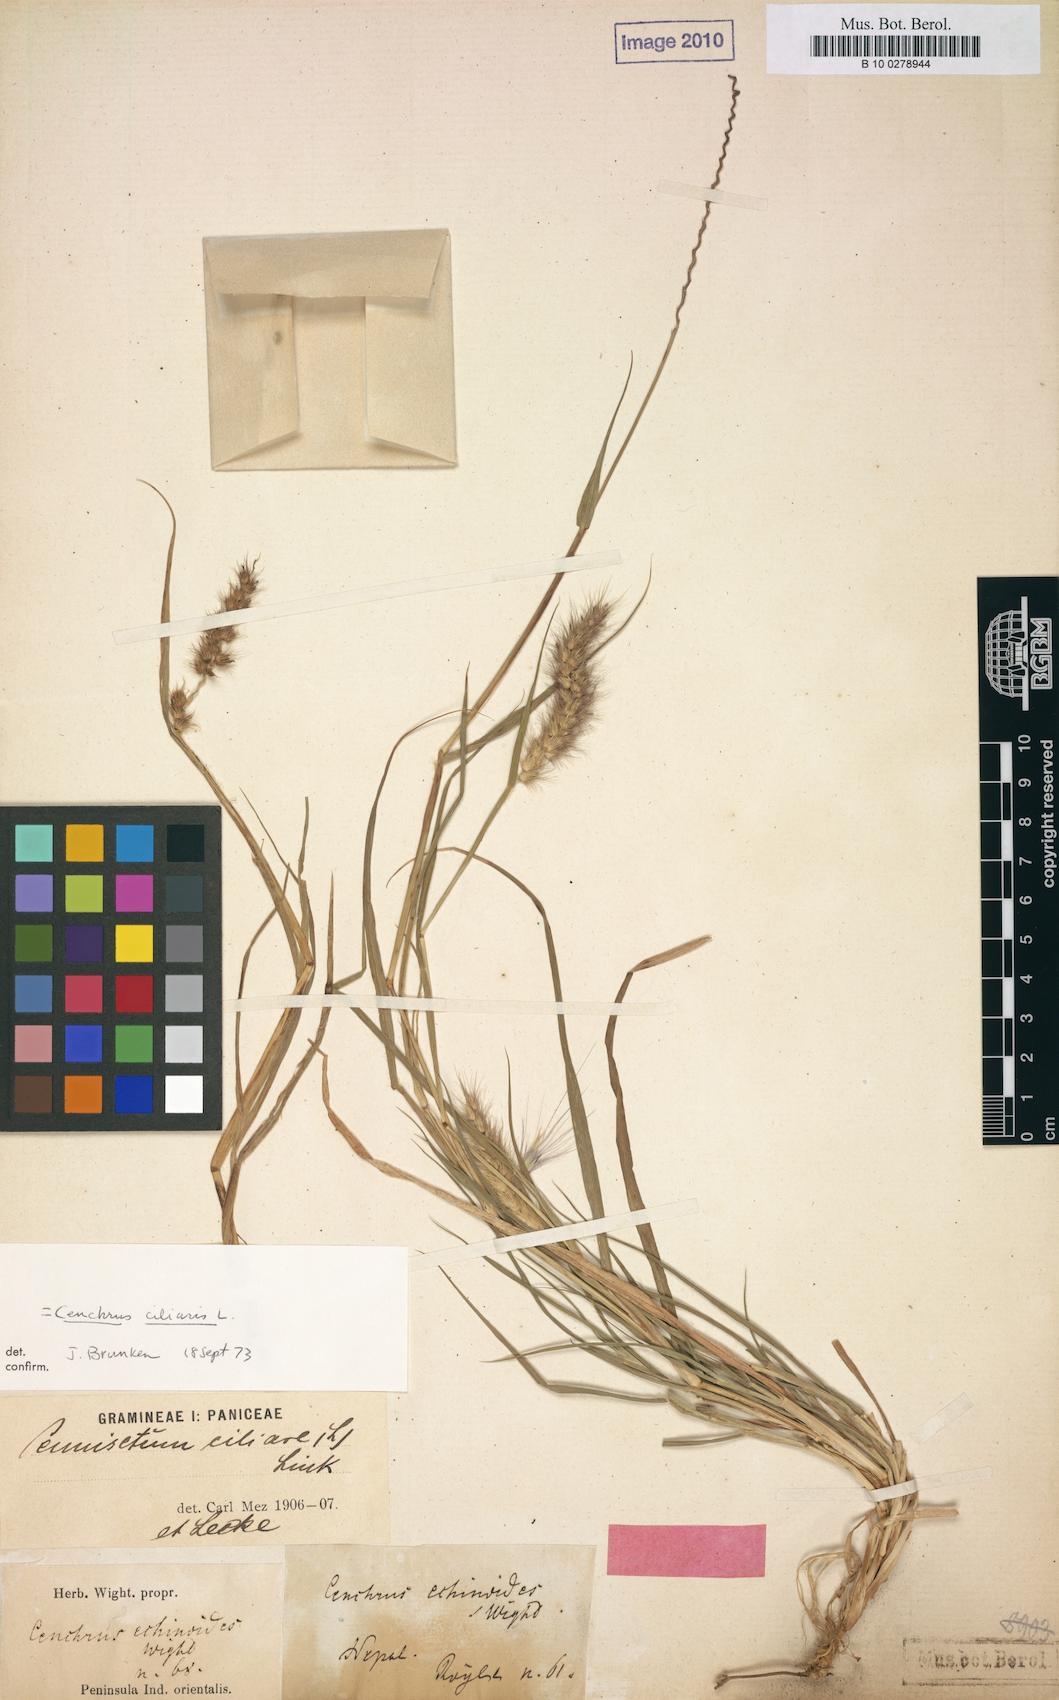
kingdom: Plantae
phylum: Tracheophyta
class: Liliopsida
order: Poales
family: Poaceae
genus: Cenchrus
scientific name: Cenchrus pennisetiformis
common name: Cloncurry
